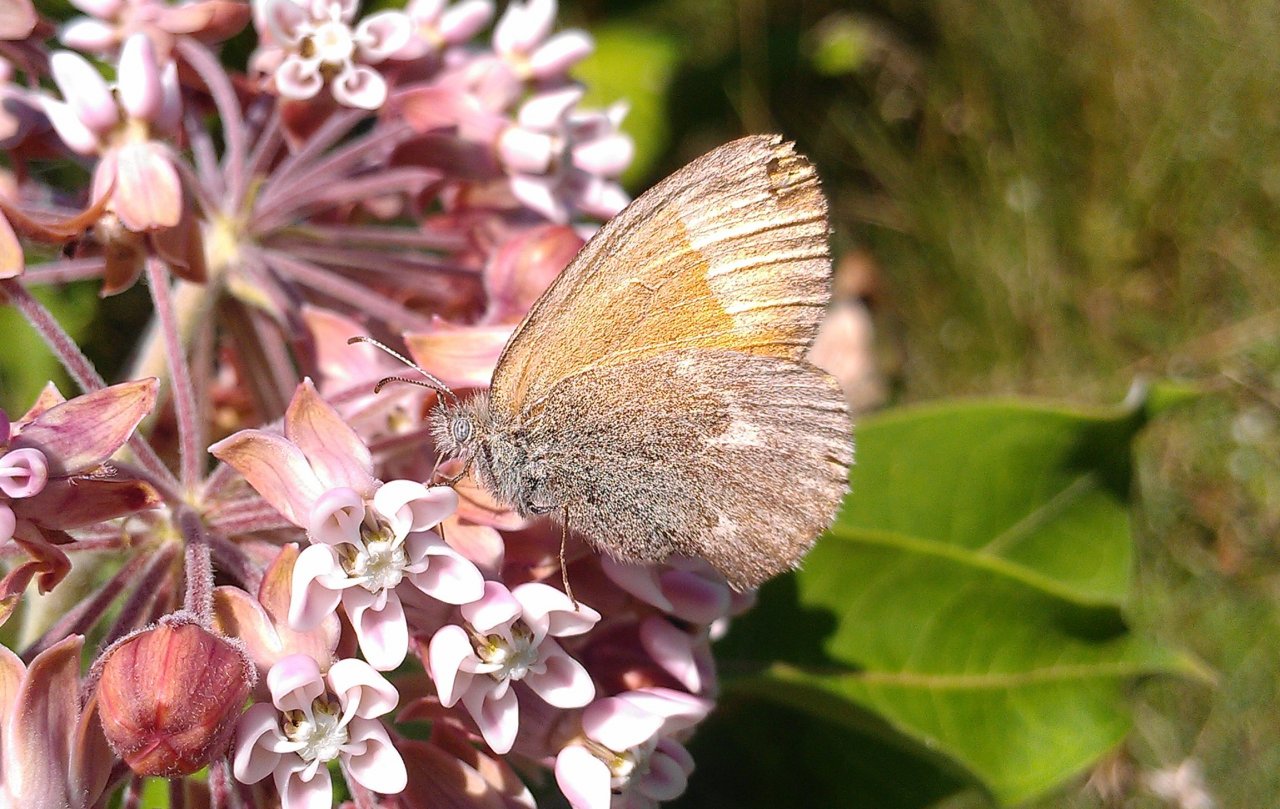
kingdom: Animalia
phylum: Arthropoda
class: Insecta
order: Lepidoptera
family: Nymphalidae
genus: Coenonympha
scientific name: Coenonympha tullia
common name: Large Heath
